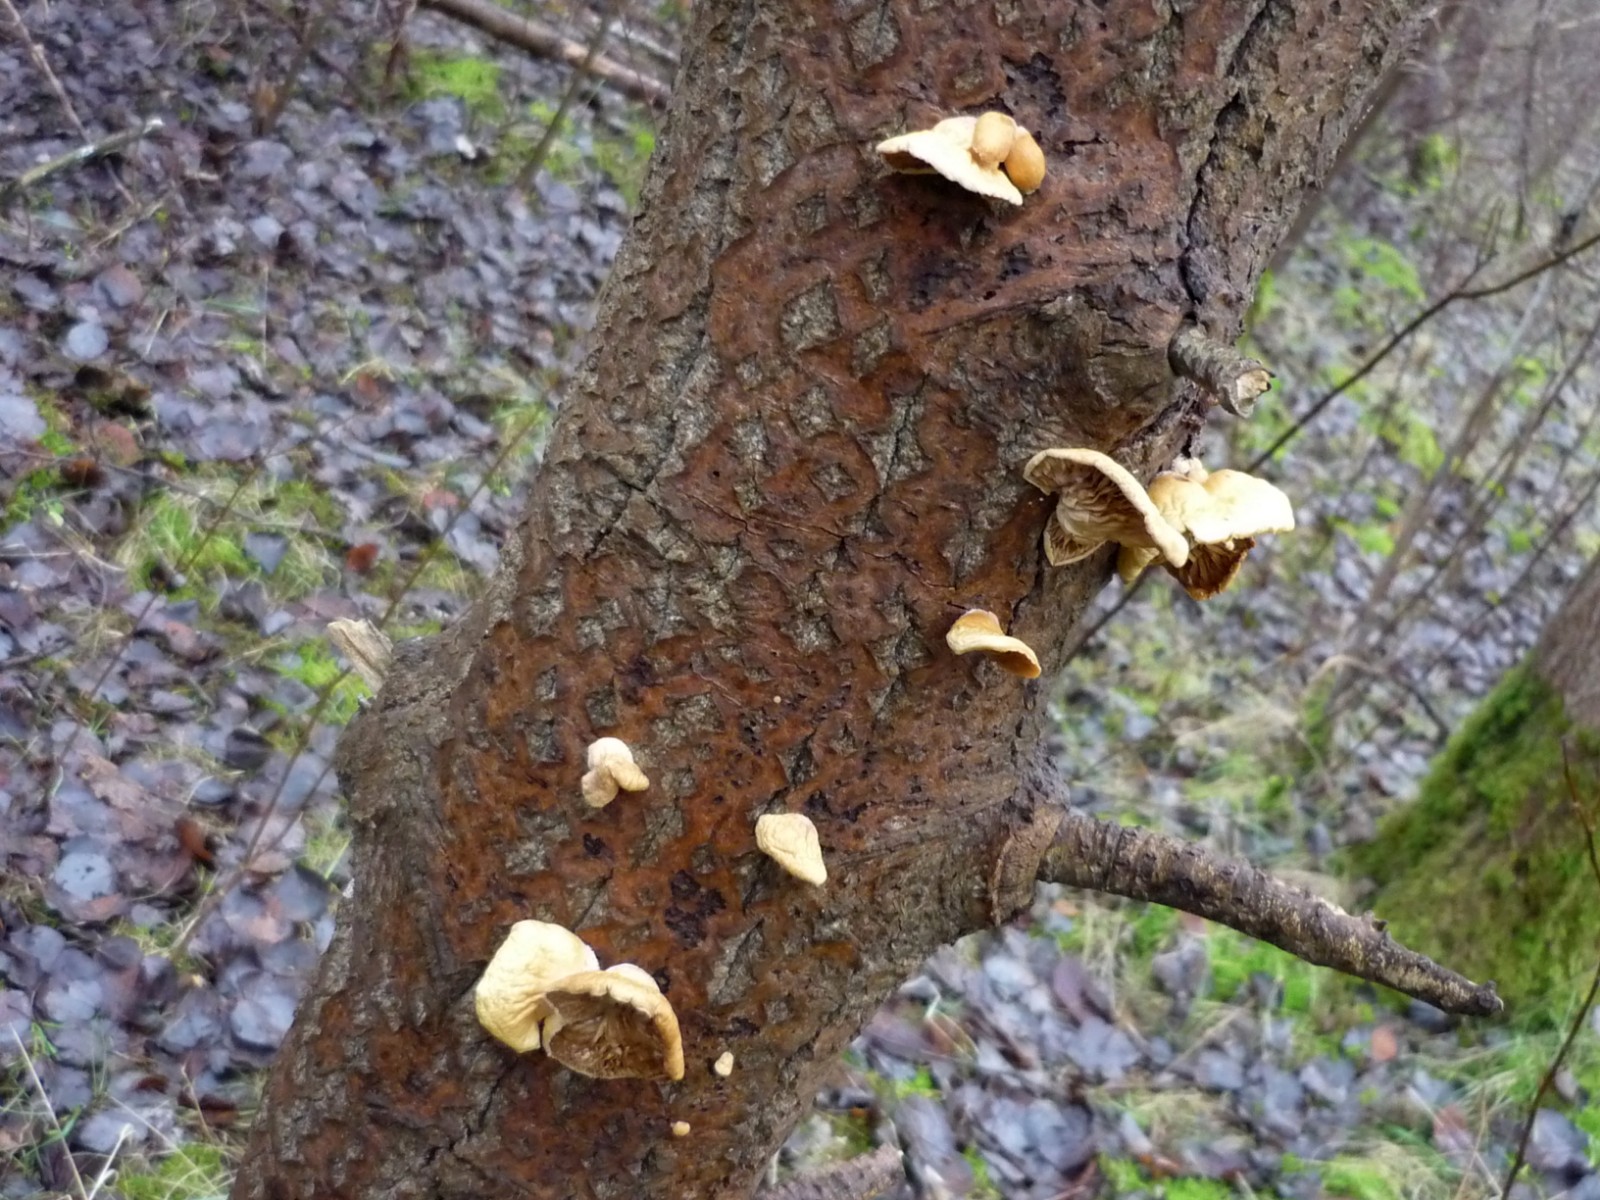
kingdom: Fungi
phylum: Basidiomycota
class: Agaricomycetes
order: Agaricales
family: Crepidotaceae
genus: Crepidotus
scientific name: Crepidotus mollis
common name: blød muslingesvamp
